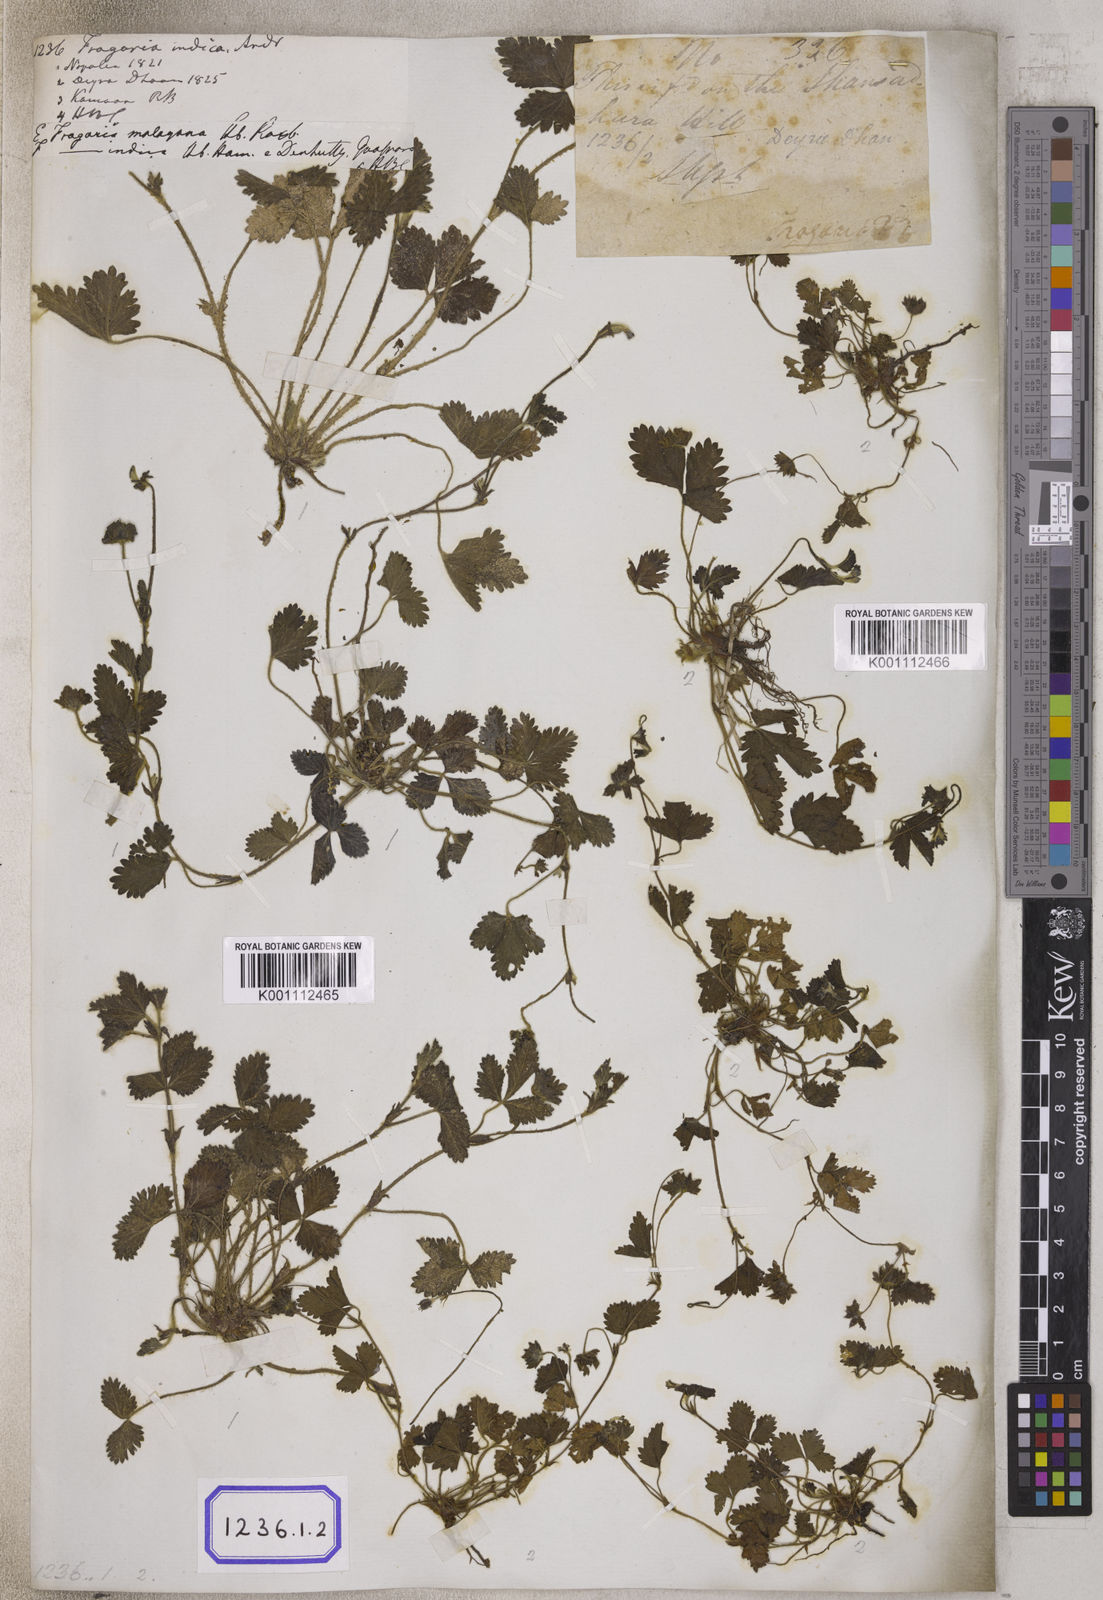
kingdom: Plantae
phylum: Tracheophyta
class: Magnoliopsida
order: Rosales
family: Rosaceae
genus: Potentilla
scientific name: Potentilla indica
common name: Yellow-flowered strawberry
